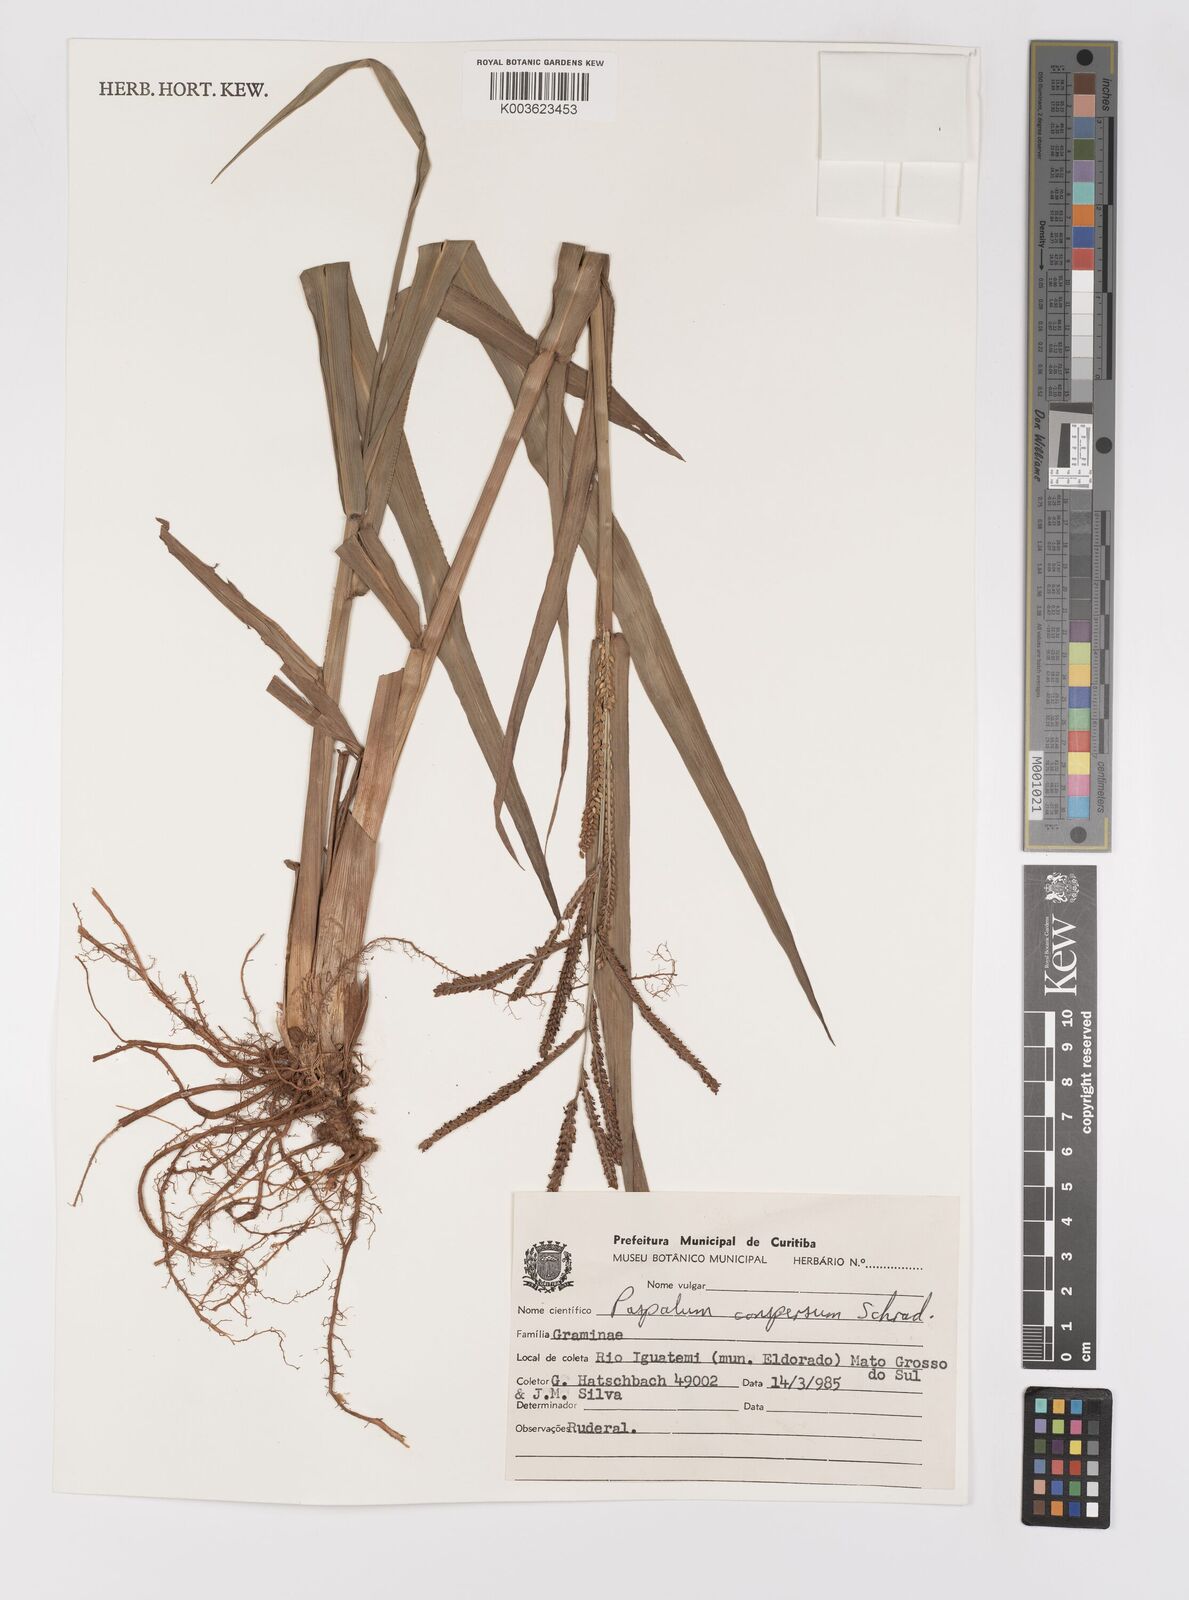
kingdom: Plantae
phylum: Tracheophyta
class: Liliopsida
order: Poales
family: Poaceae
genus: Paspalum
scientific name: Paspalum conspersum
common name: Scattered paspalum
